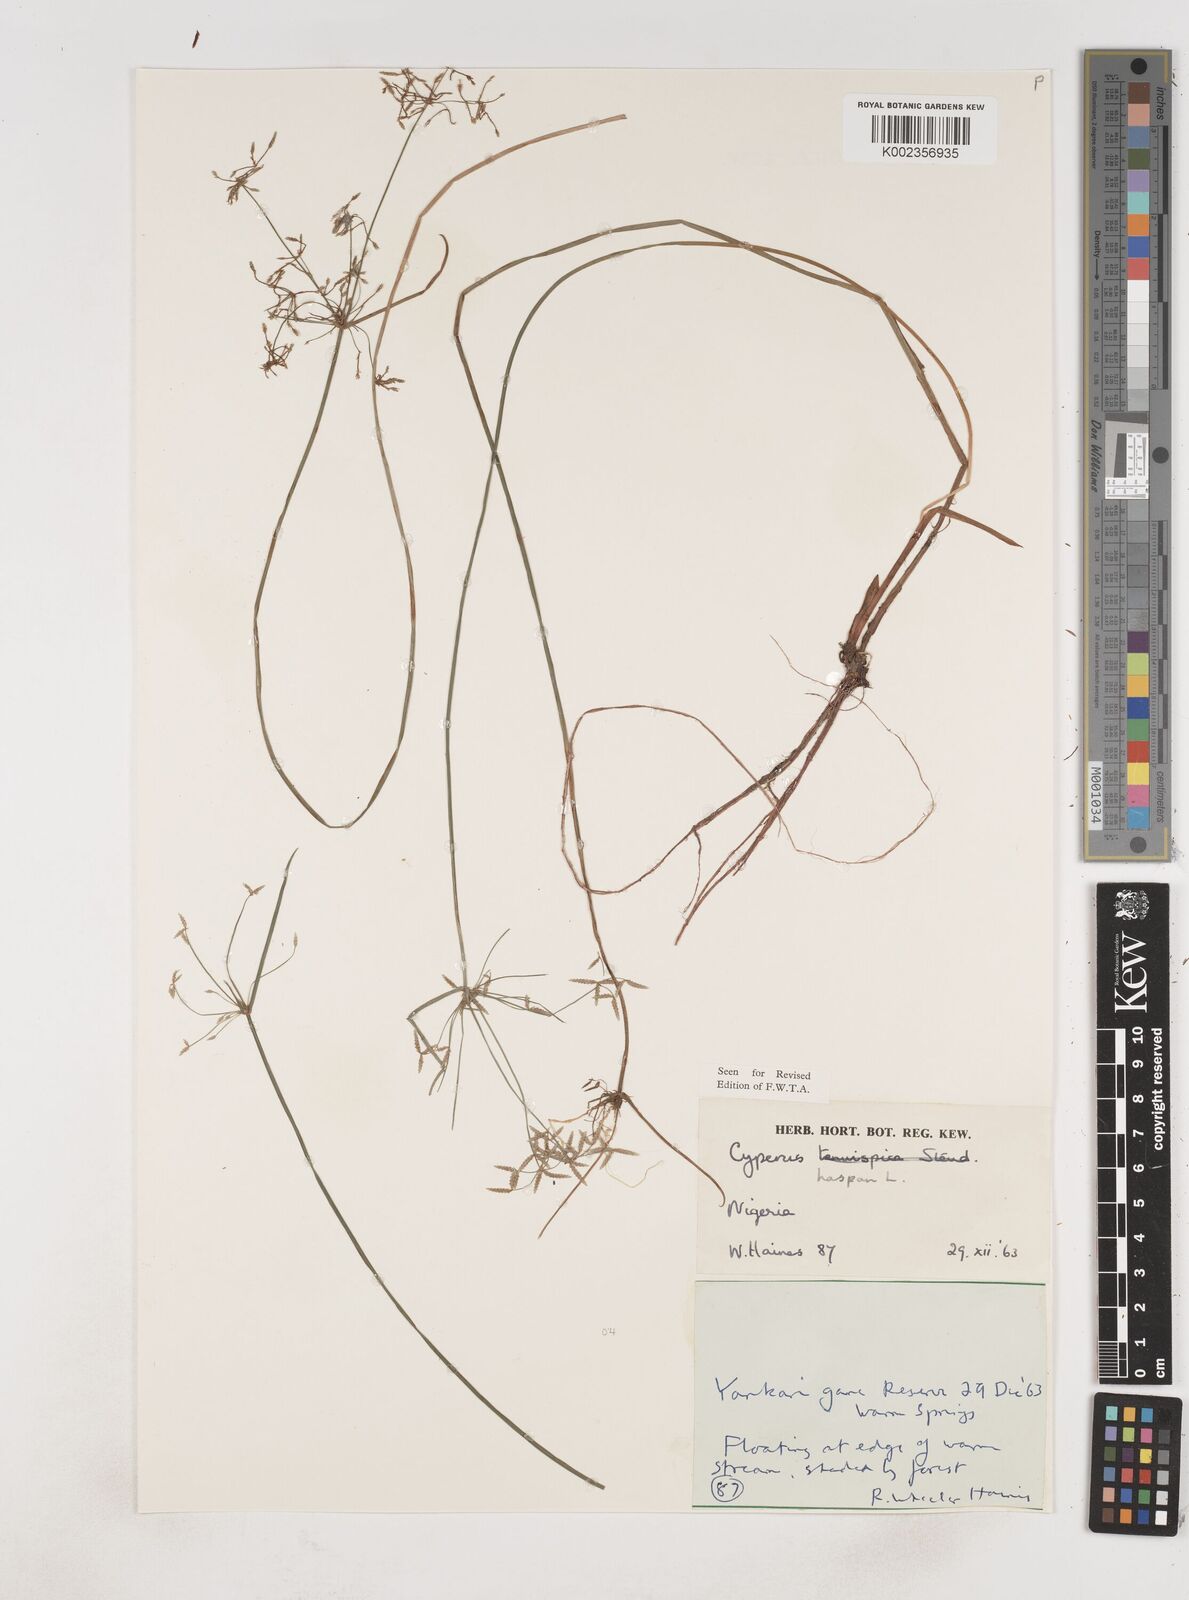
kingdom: Plantae
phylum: Tracheophyta
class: Liliopsida
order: Poales
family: Cyperaceae
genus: Cyperus
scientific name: Cyperus haspan
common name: Haspan flatsedge
